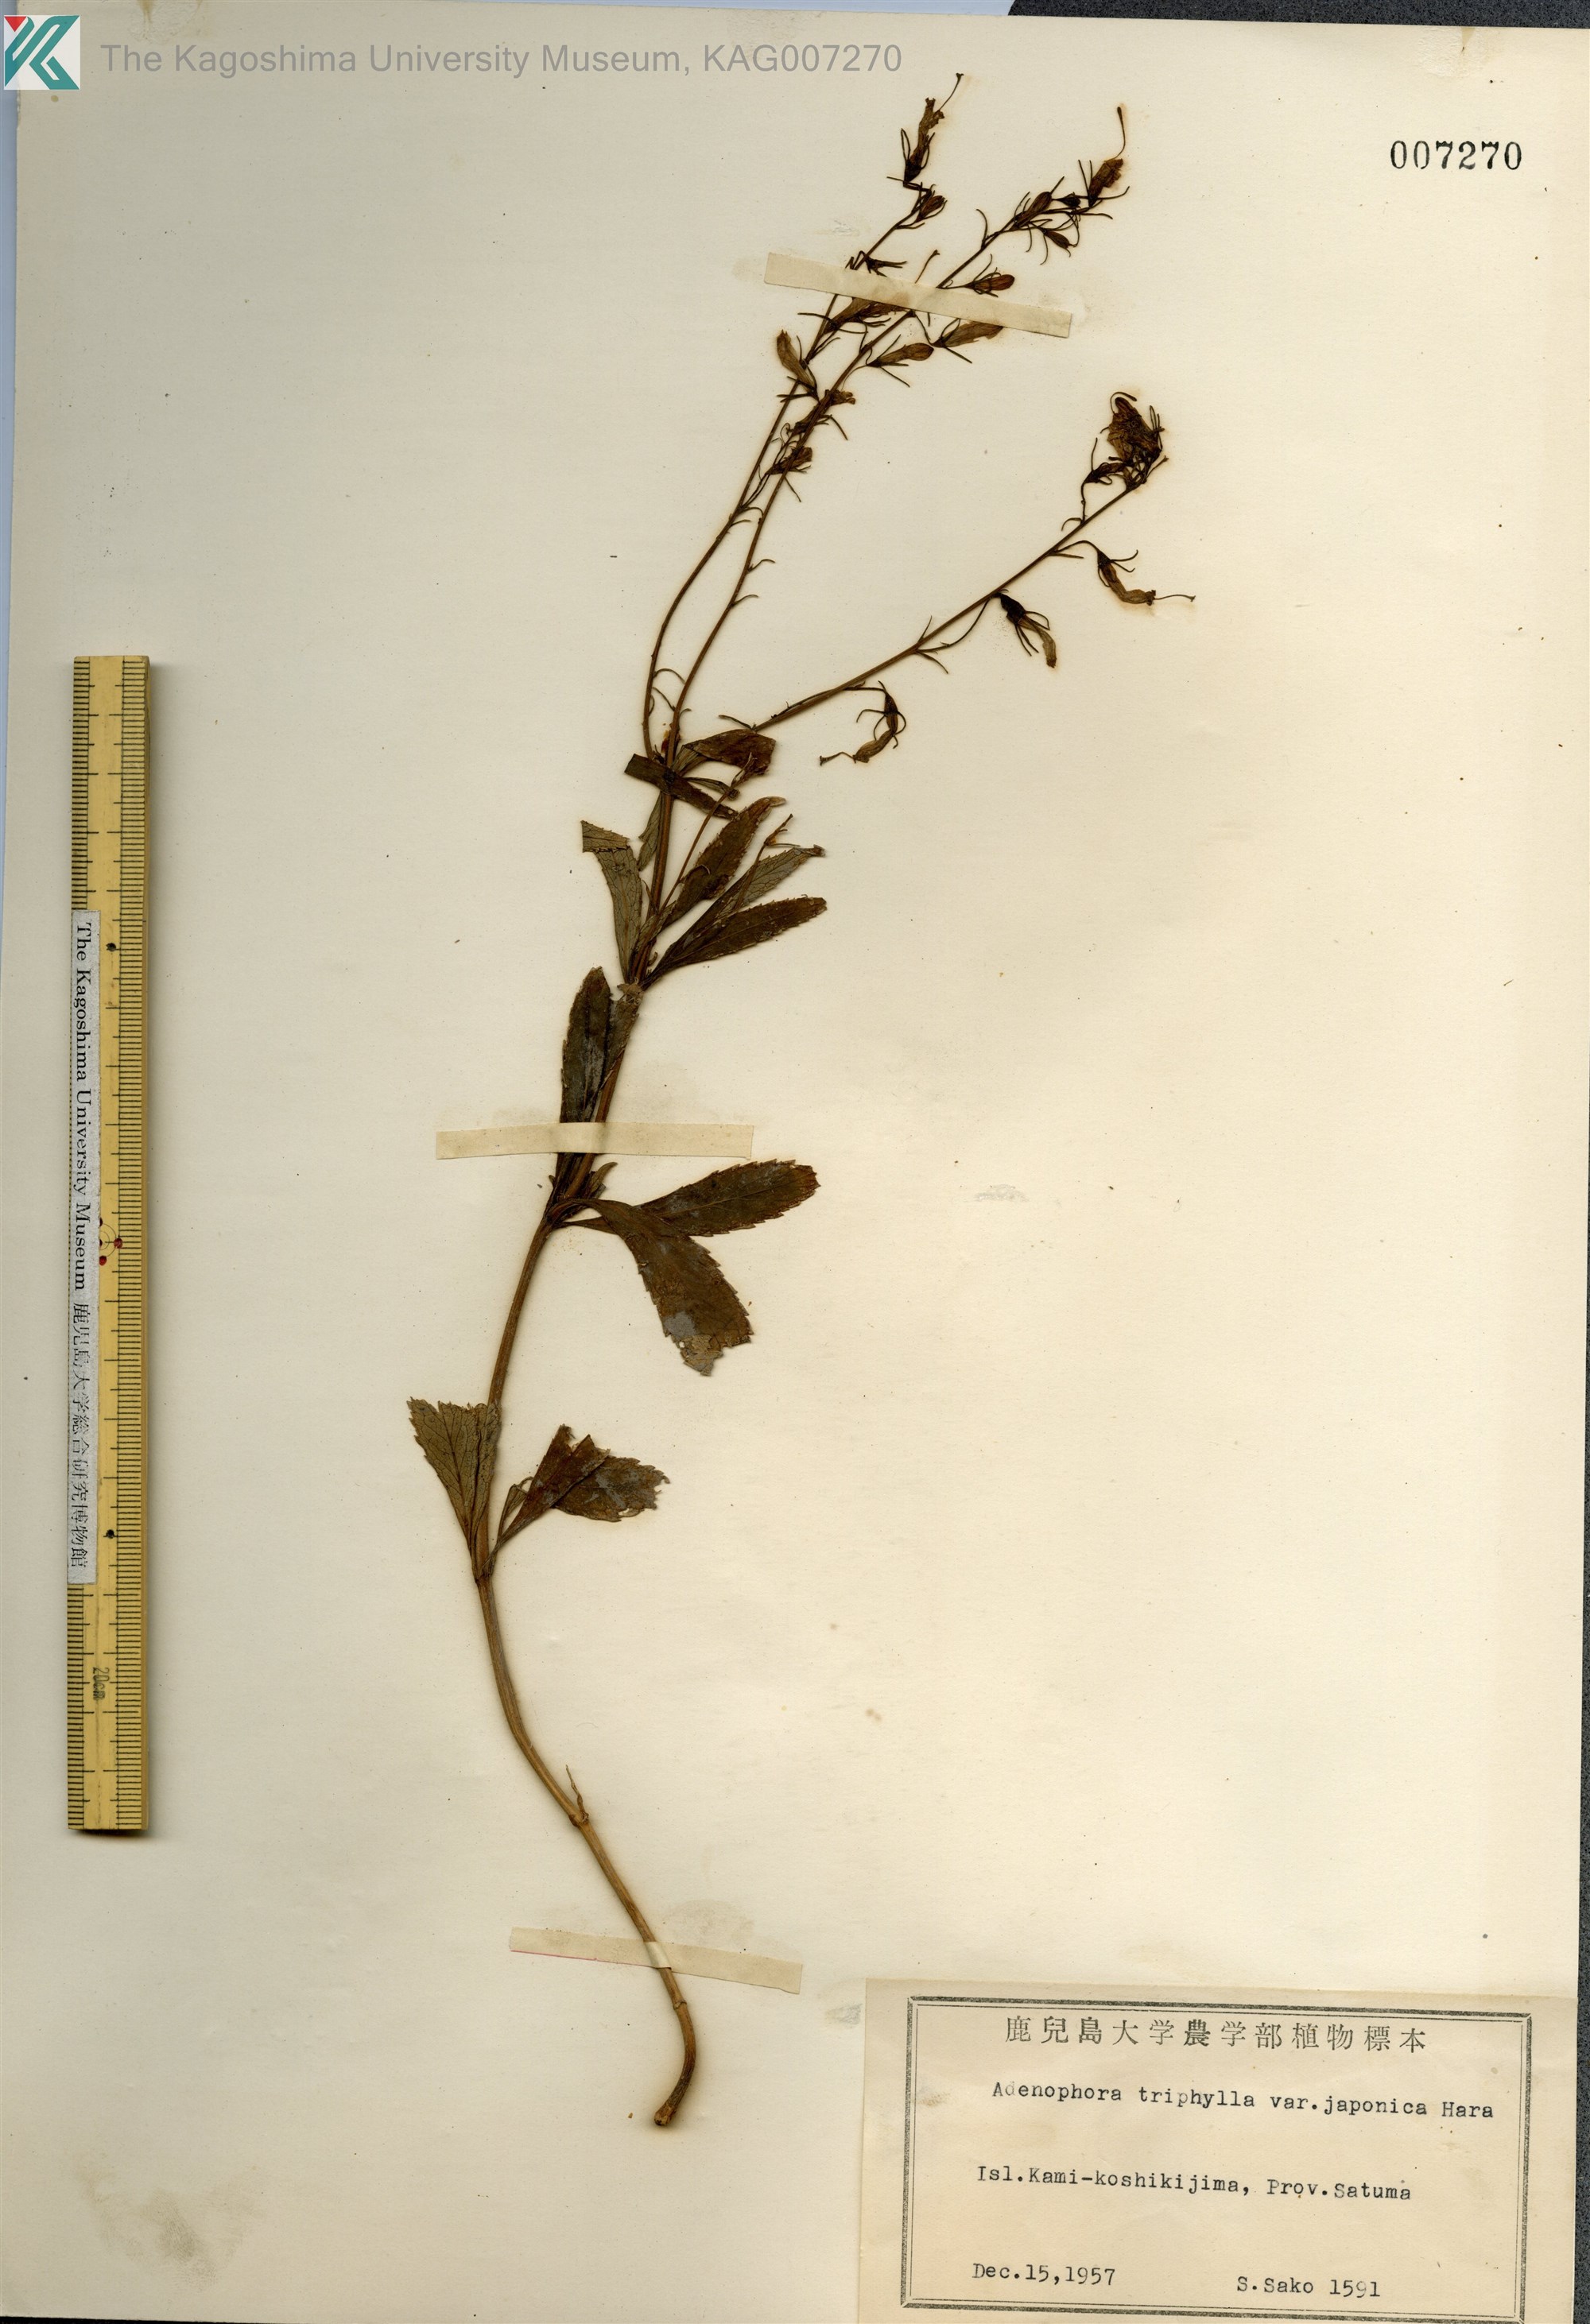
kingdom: Plantae
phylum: Tracheophyta
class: Magnoliopsida
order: Asterales
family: Campanulaceae
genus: Adenophora
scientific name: Adenophora triphylla
